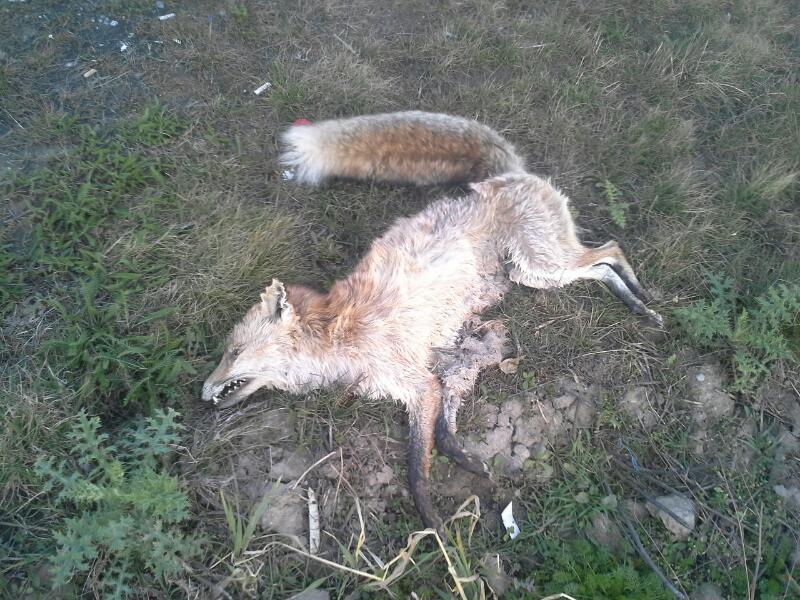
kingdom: Animalia
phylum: Chordata
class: Mammalia
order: Carnivora
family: Canidae
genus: Vulpes
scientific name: Vulpes vulpes
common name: Red fox
